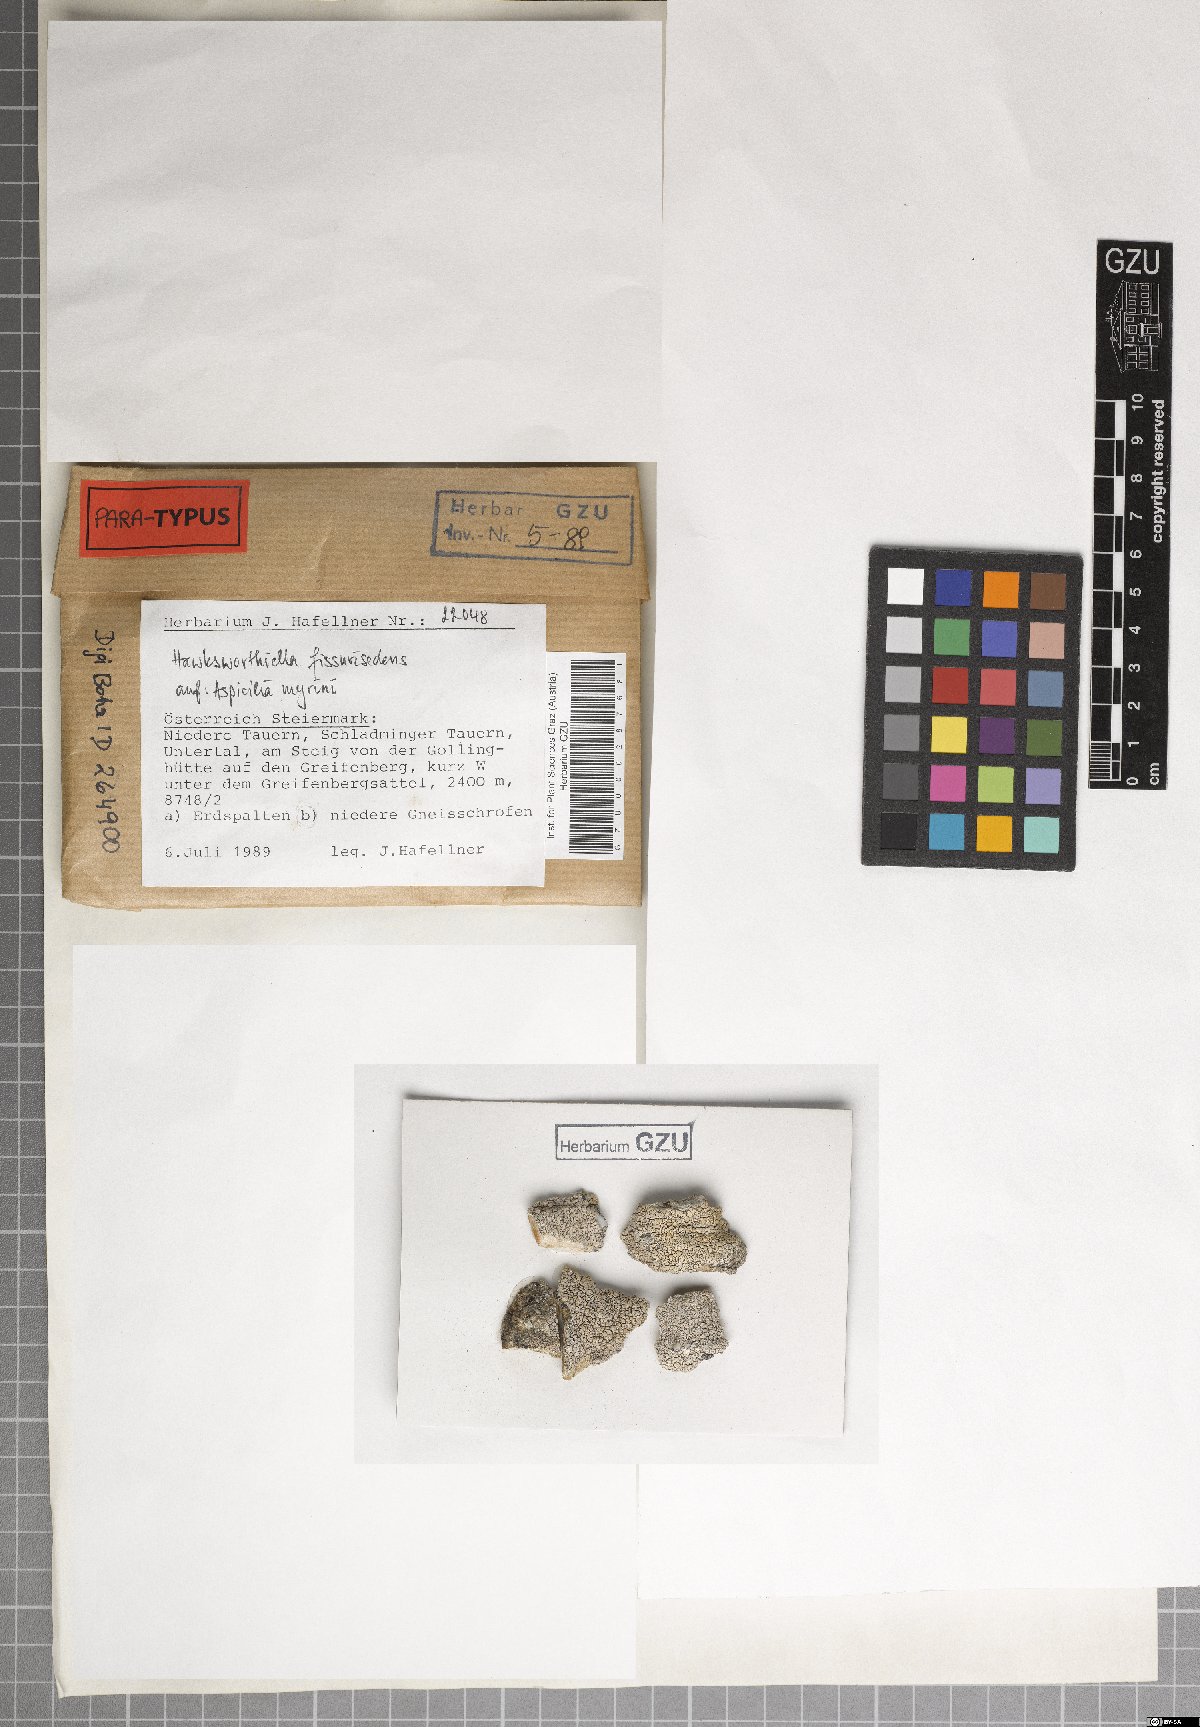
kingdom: Fungi
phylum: Ascomycota
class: Eurotiomycetes
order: Verrucariales
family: Adelococcaceae
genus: Sagediopsis
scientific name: Sagediopsis fissurisedens
